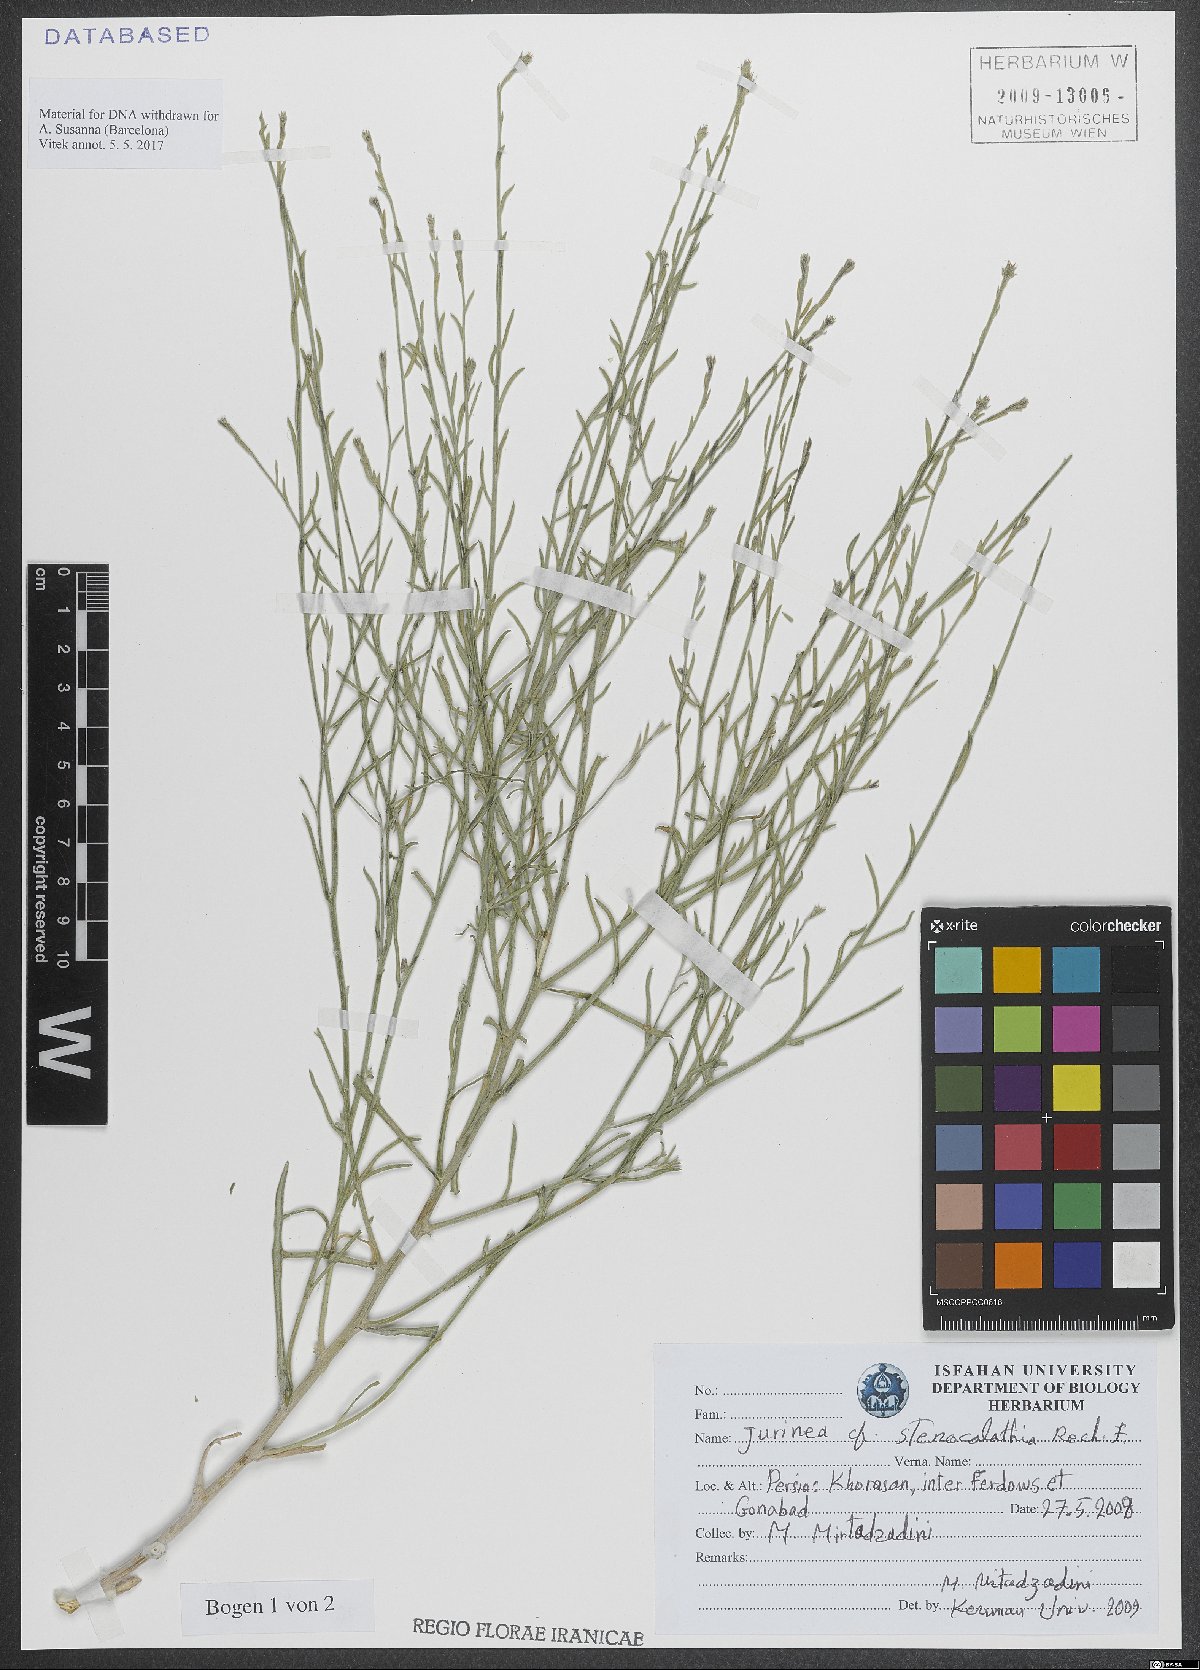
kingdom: Plantae
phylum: Tracheophyta
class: Magnoliopsida
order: Asterales
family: Asteraceae
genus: Jurinea
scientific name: Jurinea stenocalathia
